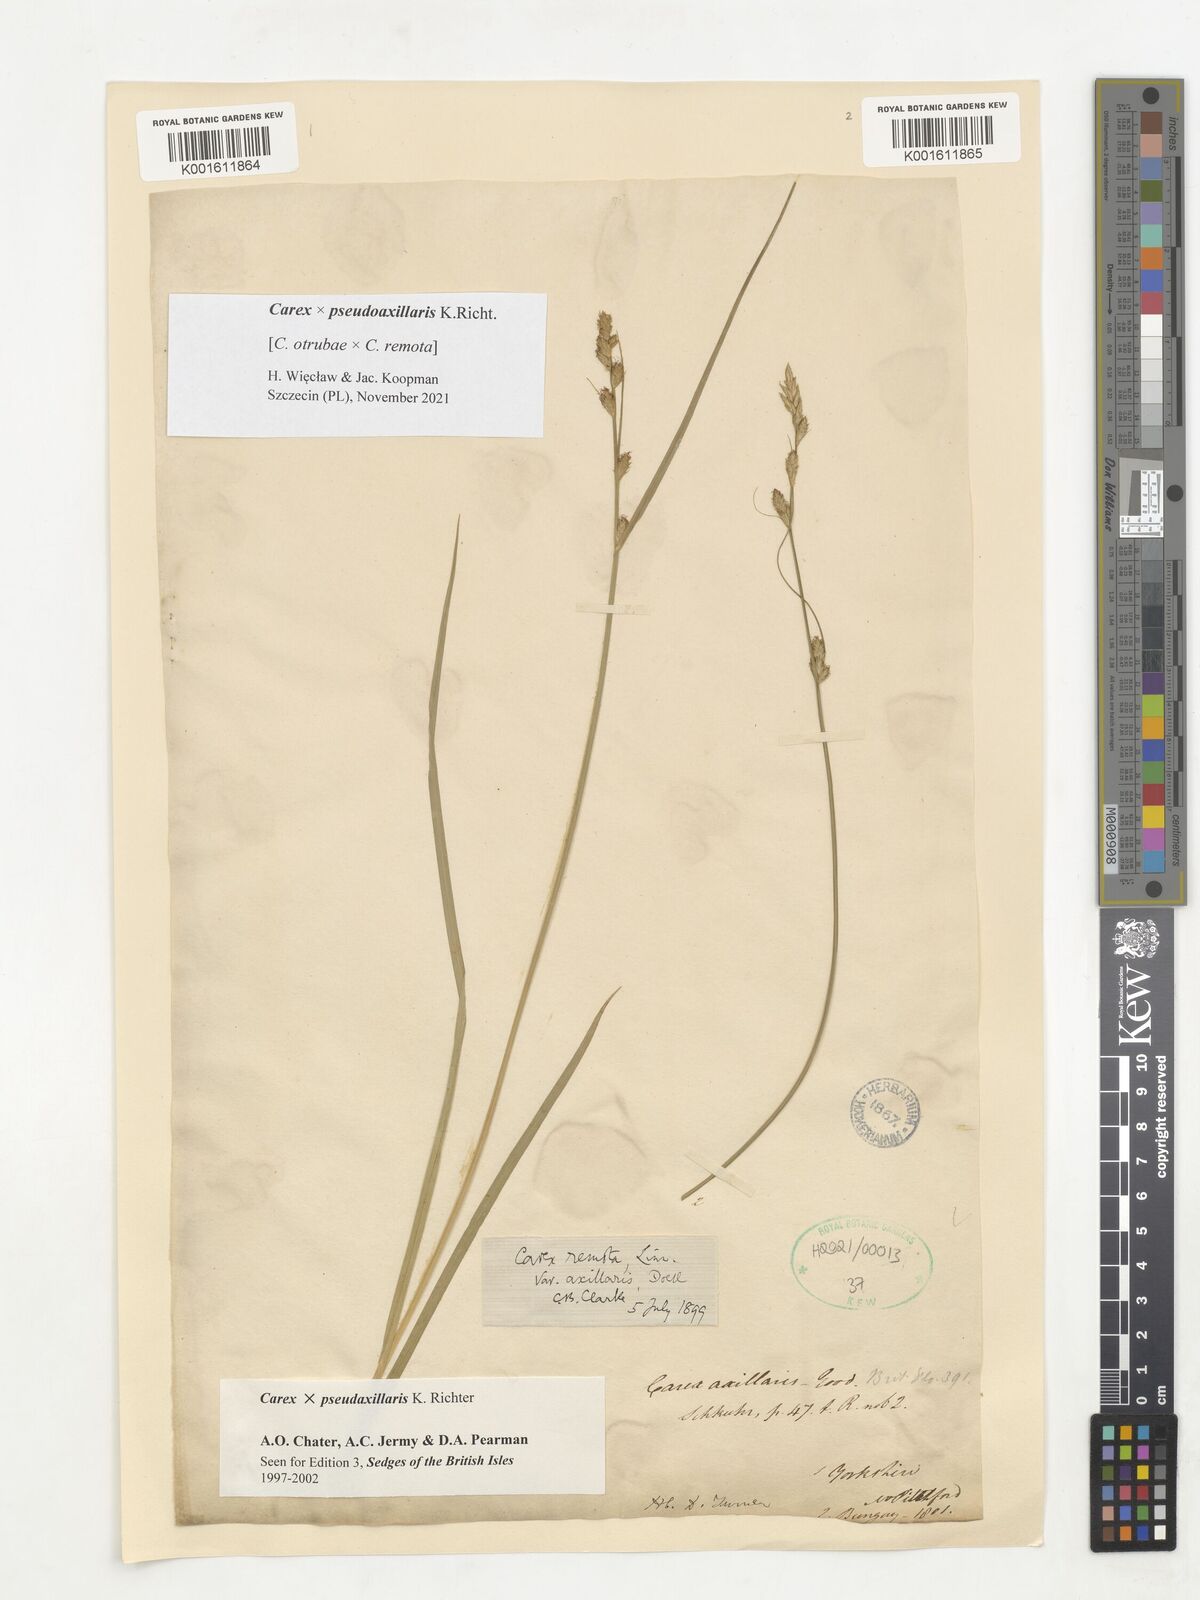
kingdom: Plantae
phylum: Tracheophyta
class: Liliopsida
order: Poales
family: Cyperaceae
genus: Carex
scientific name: Carex pseudoaxillaris
